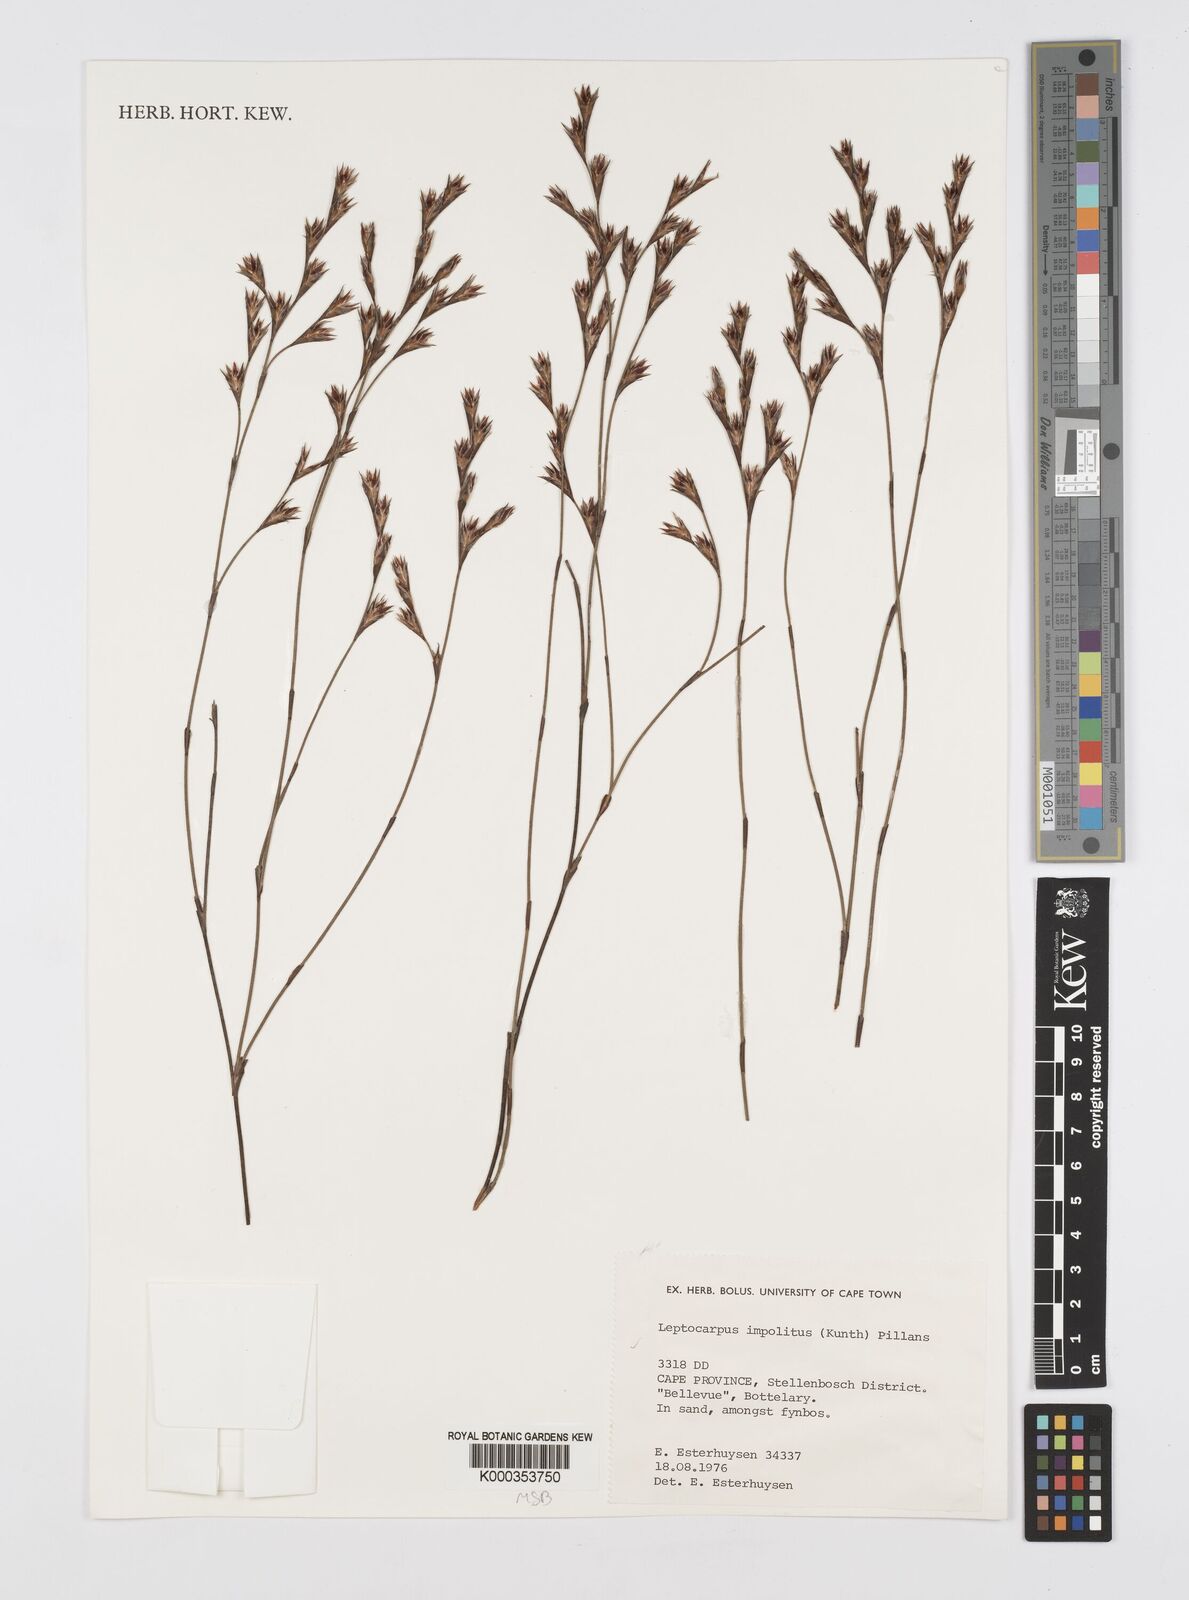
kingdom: Plantae
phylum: Tracheophyta
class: Liliopsida
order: Poales
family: Restionaceae
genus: Restio
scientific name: Restio impolitus
